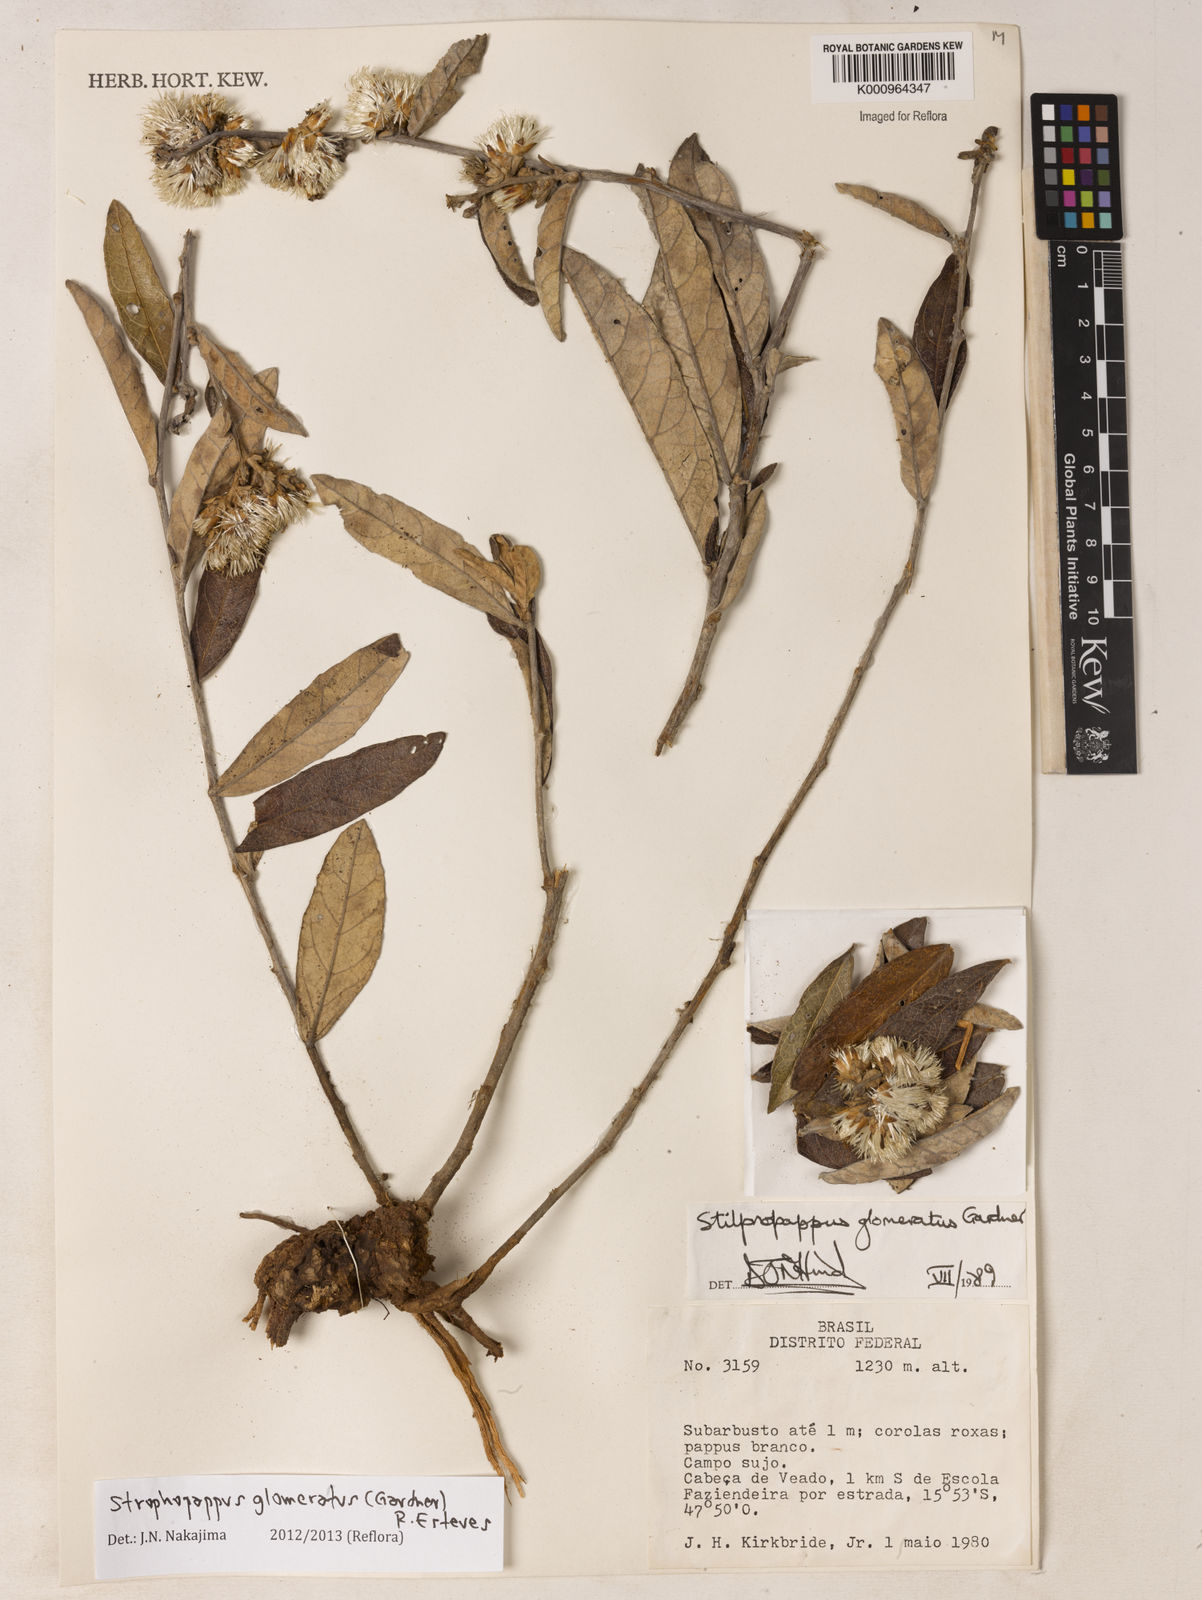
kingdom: Plantae
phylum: Tracheophyta
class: Magnoliopsida
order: Asterales
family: Asteraceae
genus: Stilpnopappus
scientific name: Stilpnopappus glomeratus
